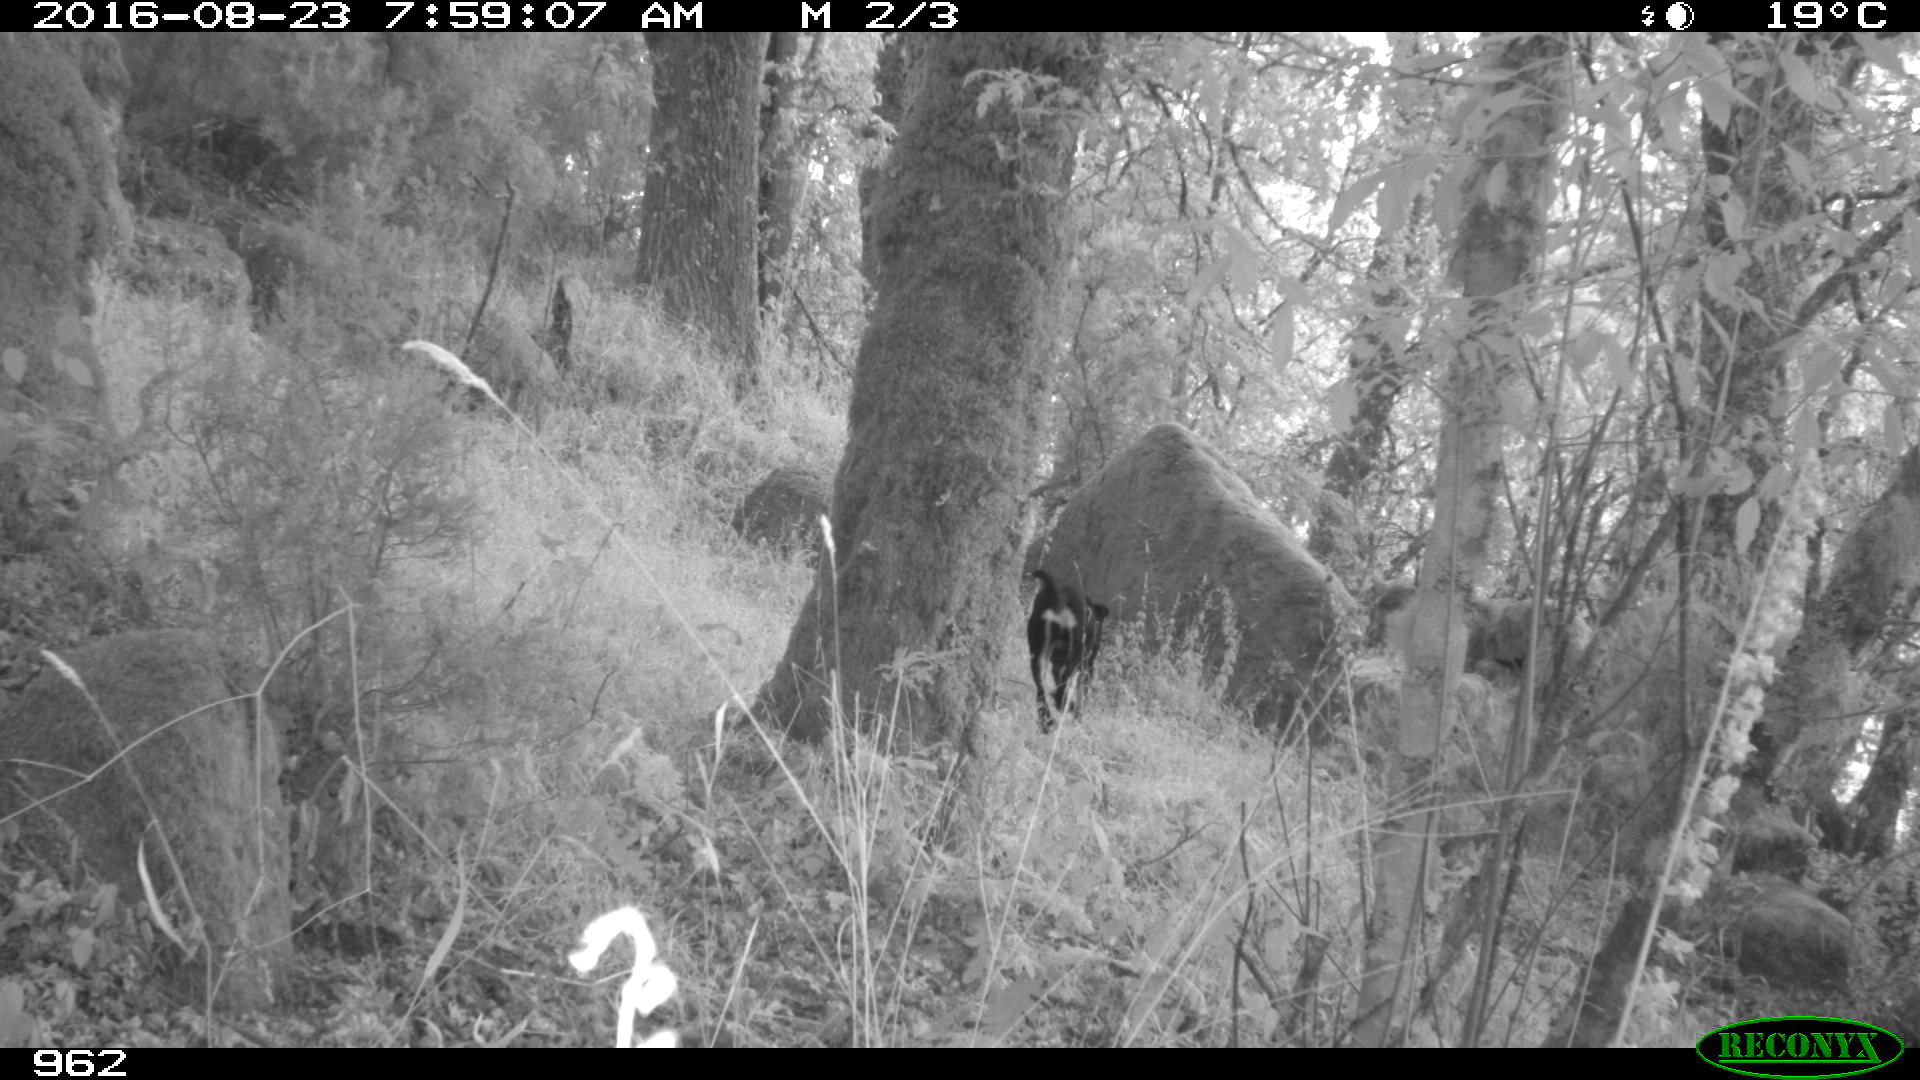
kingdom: Animalia
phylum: Chordata
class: Mammalia
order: Carnivora
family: Canidae
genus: Canis
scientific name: Canis lupus
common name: Gray wolf
